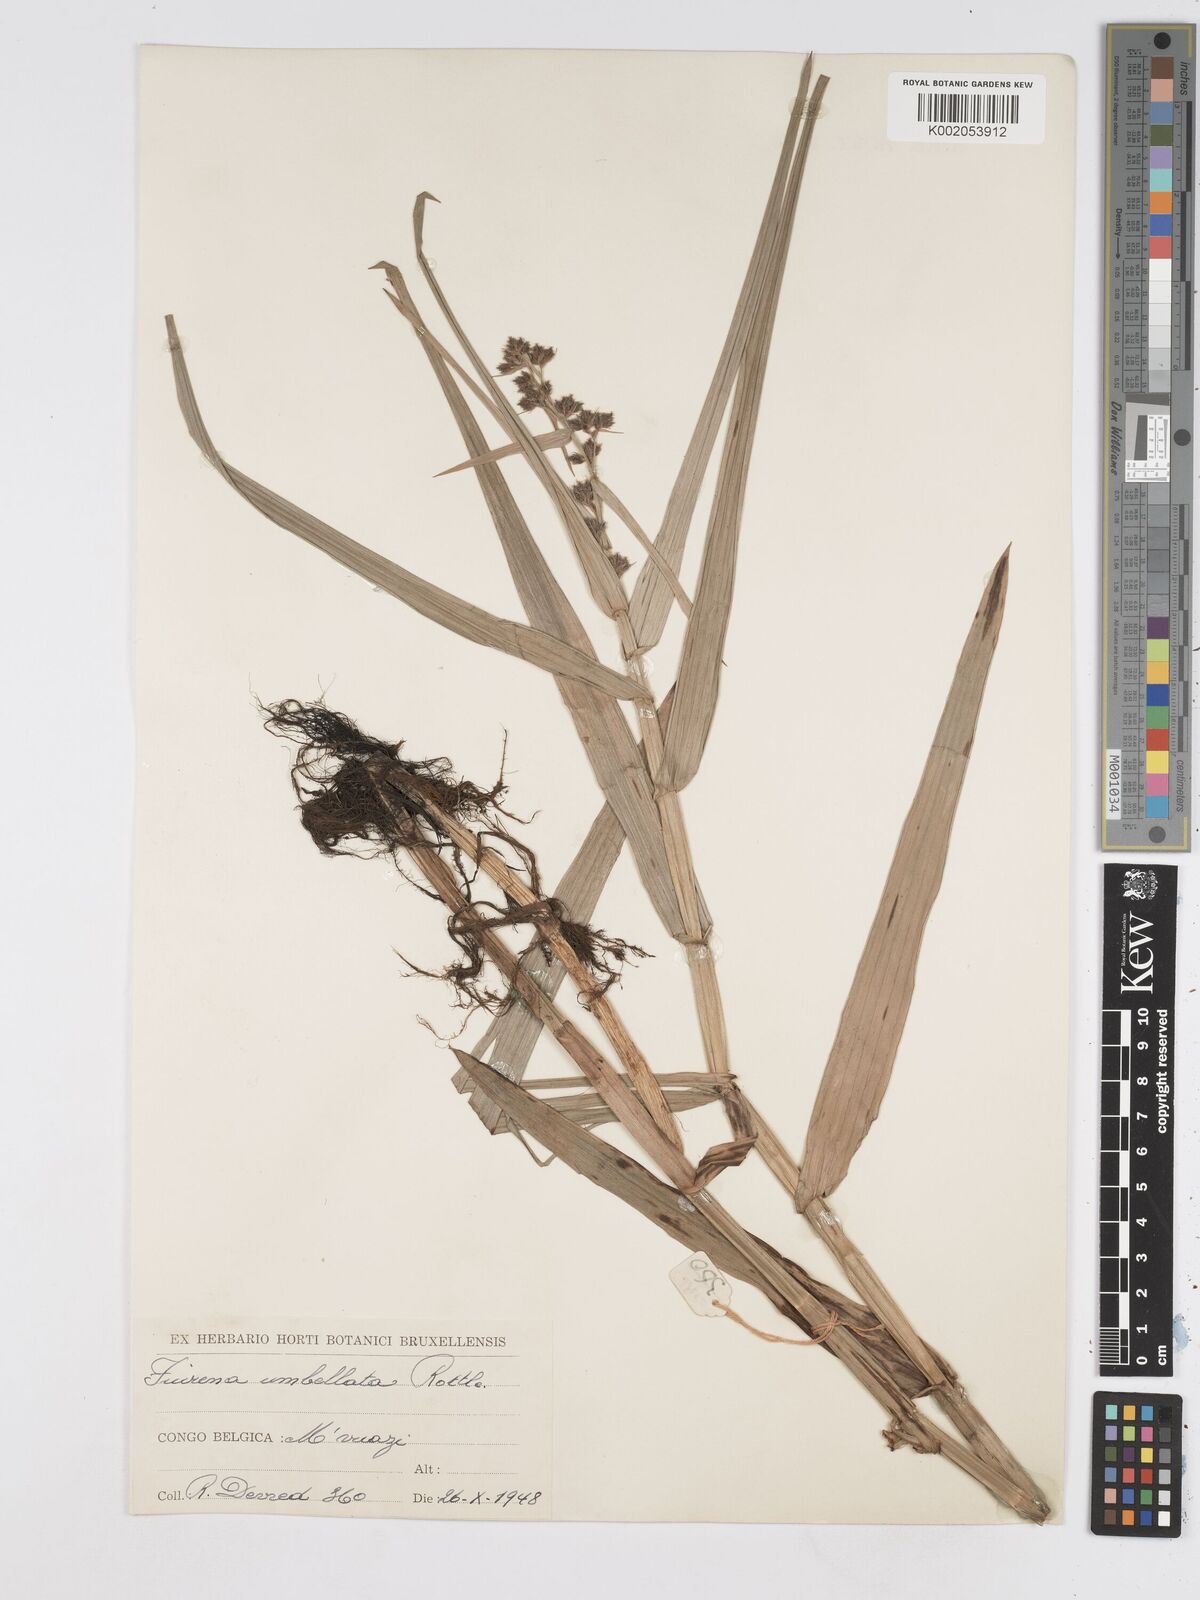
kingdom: Plantae
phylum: Tracheophyta
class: Liliopsida
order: Poales
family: Cyperaceae
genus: Fuirena
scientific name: Fuirena umbellata
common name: Yefen
